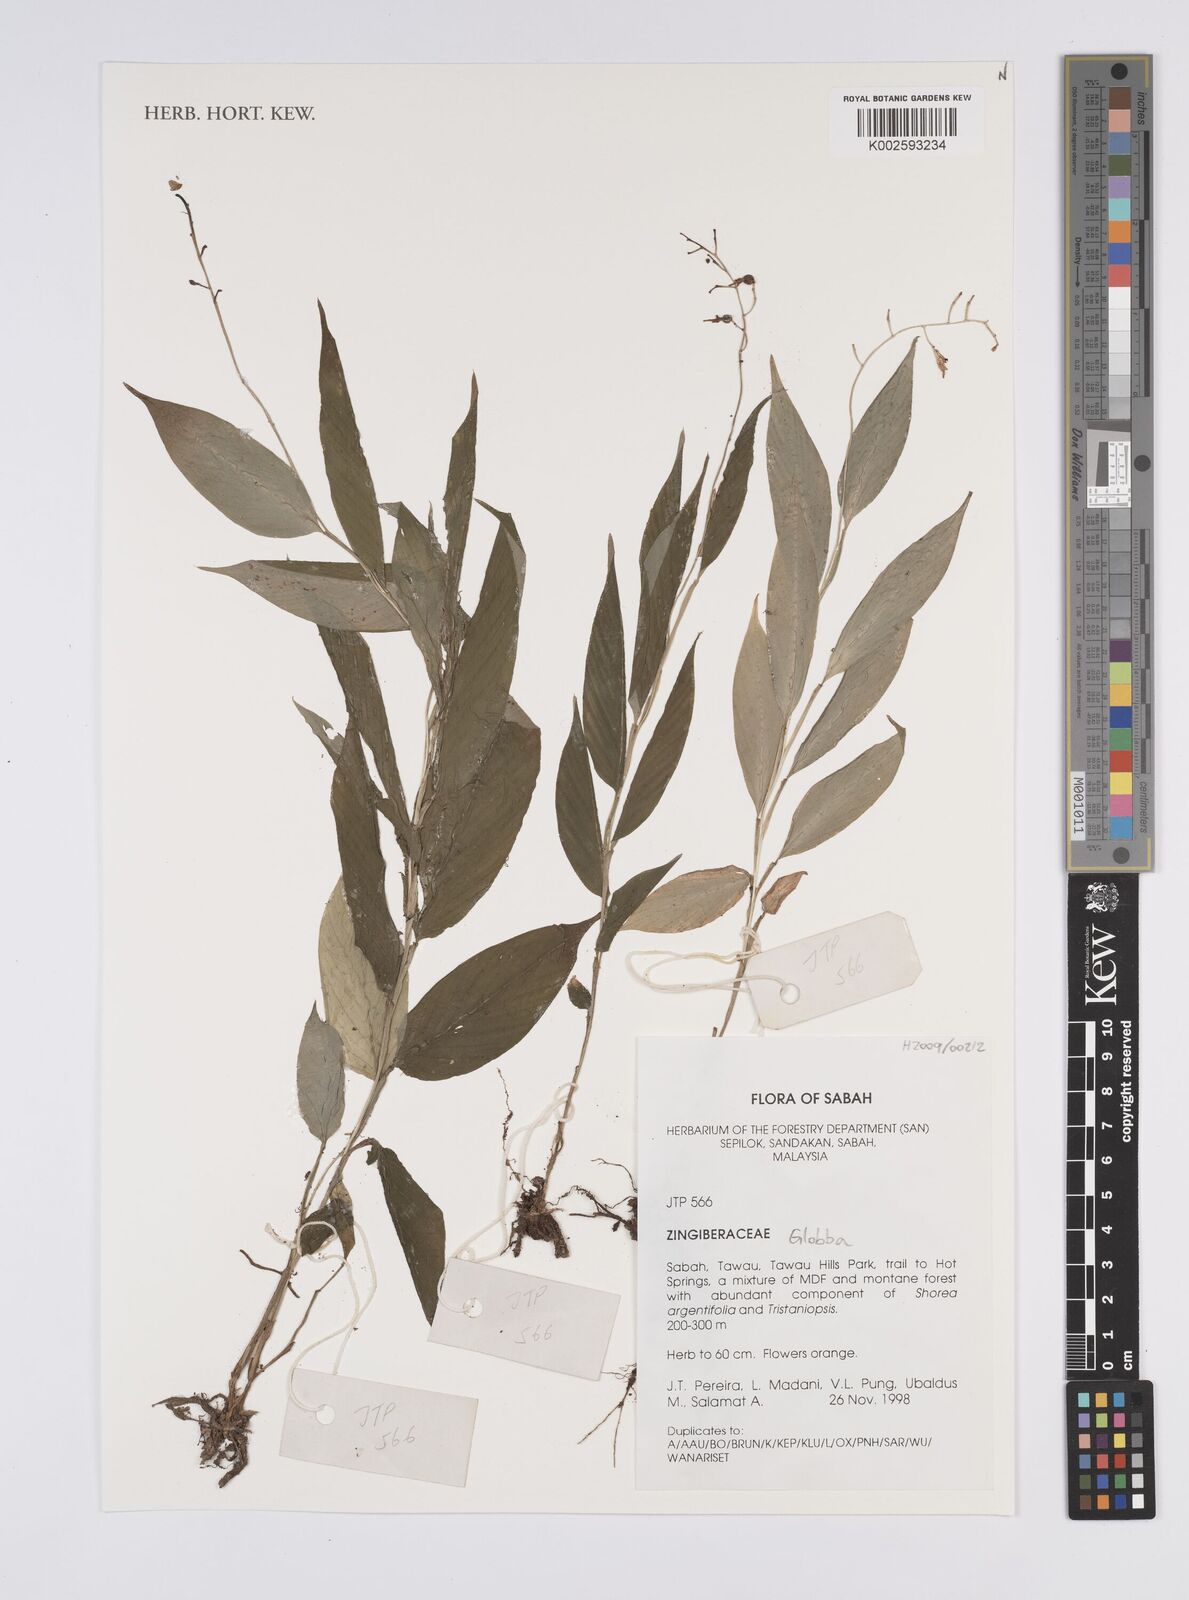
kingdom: Plantae
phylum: Tracheophyta
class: Liliopsida
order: Zingiberales
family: Zingiberaceae
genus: Globba
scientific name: Globba
